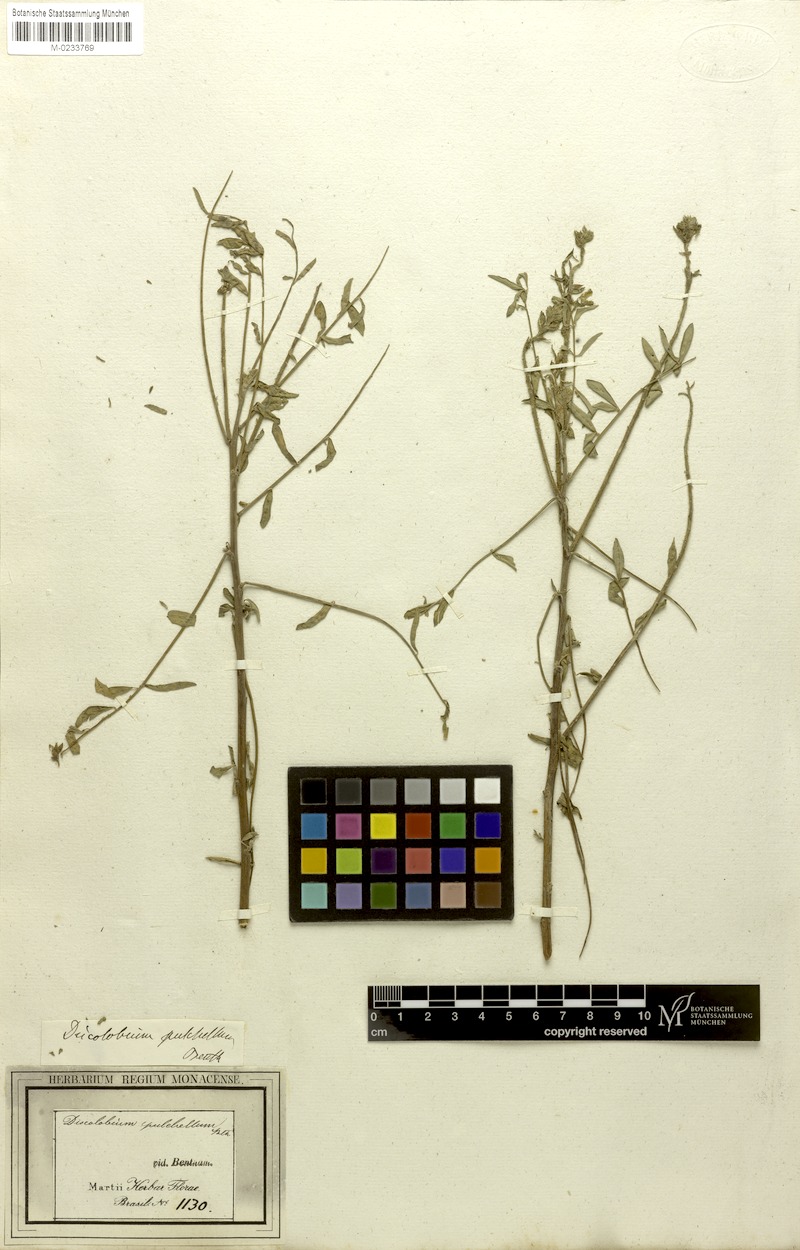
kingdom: Plantae
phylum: Tracheophyta
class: Magnoliopsida
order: Fabales
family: Fabaceae
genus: Discolobium
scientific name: Discolobium pulchellum
